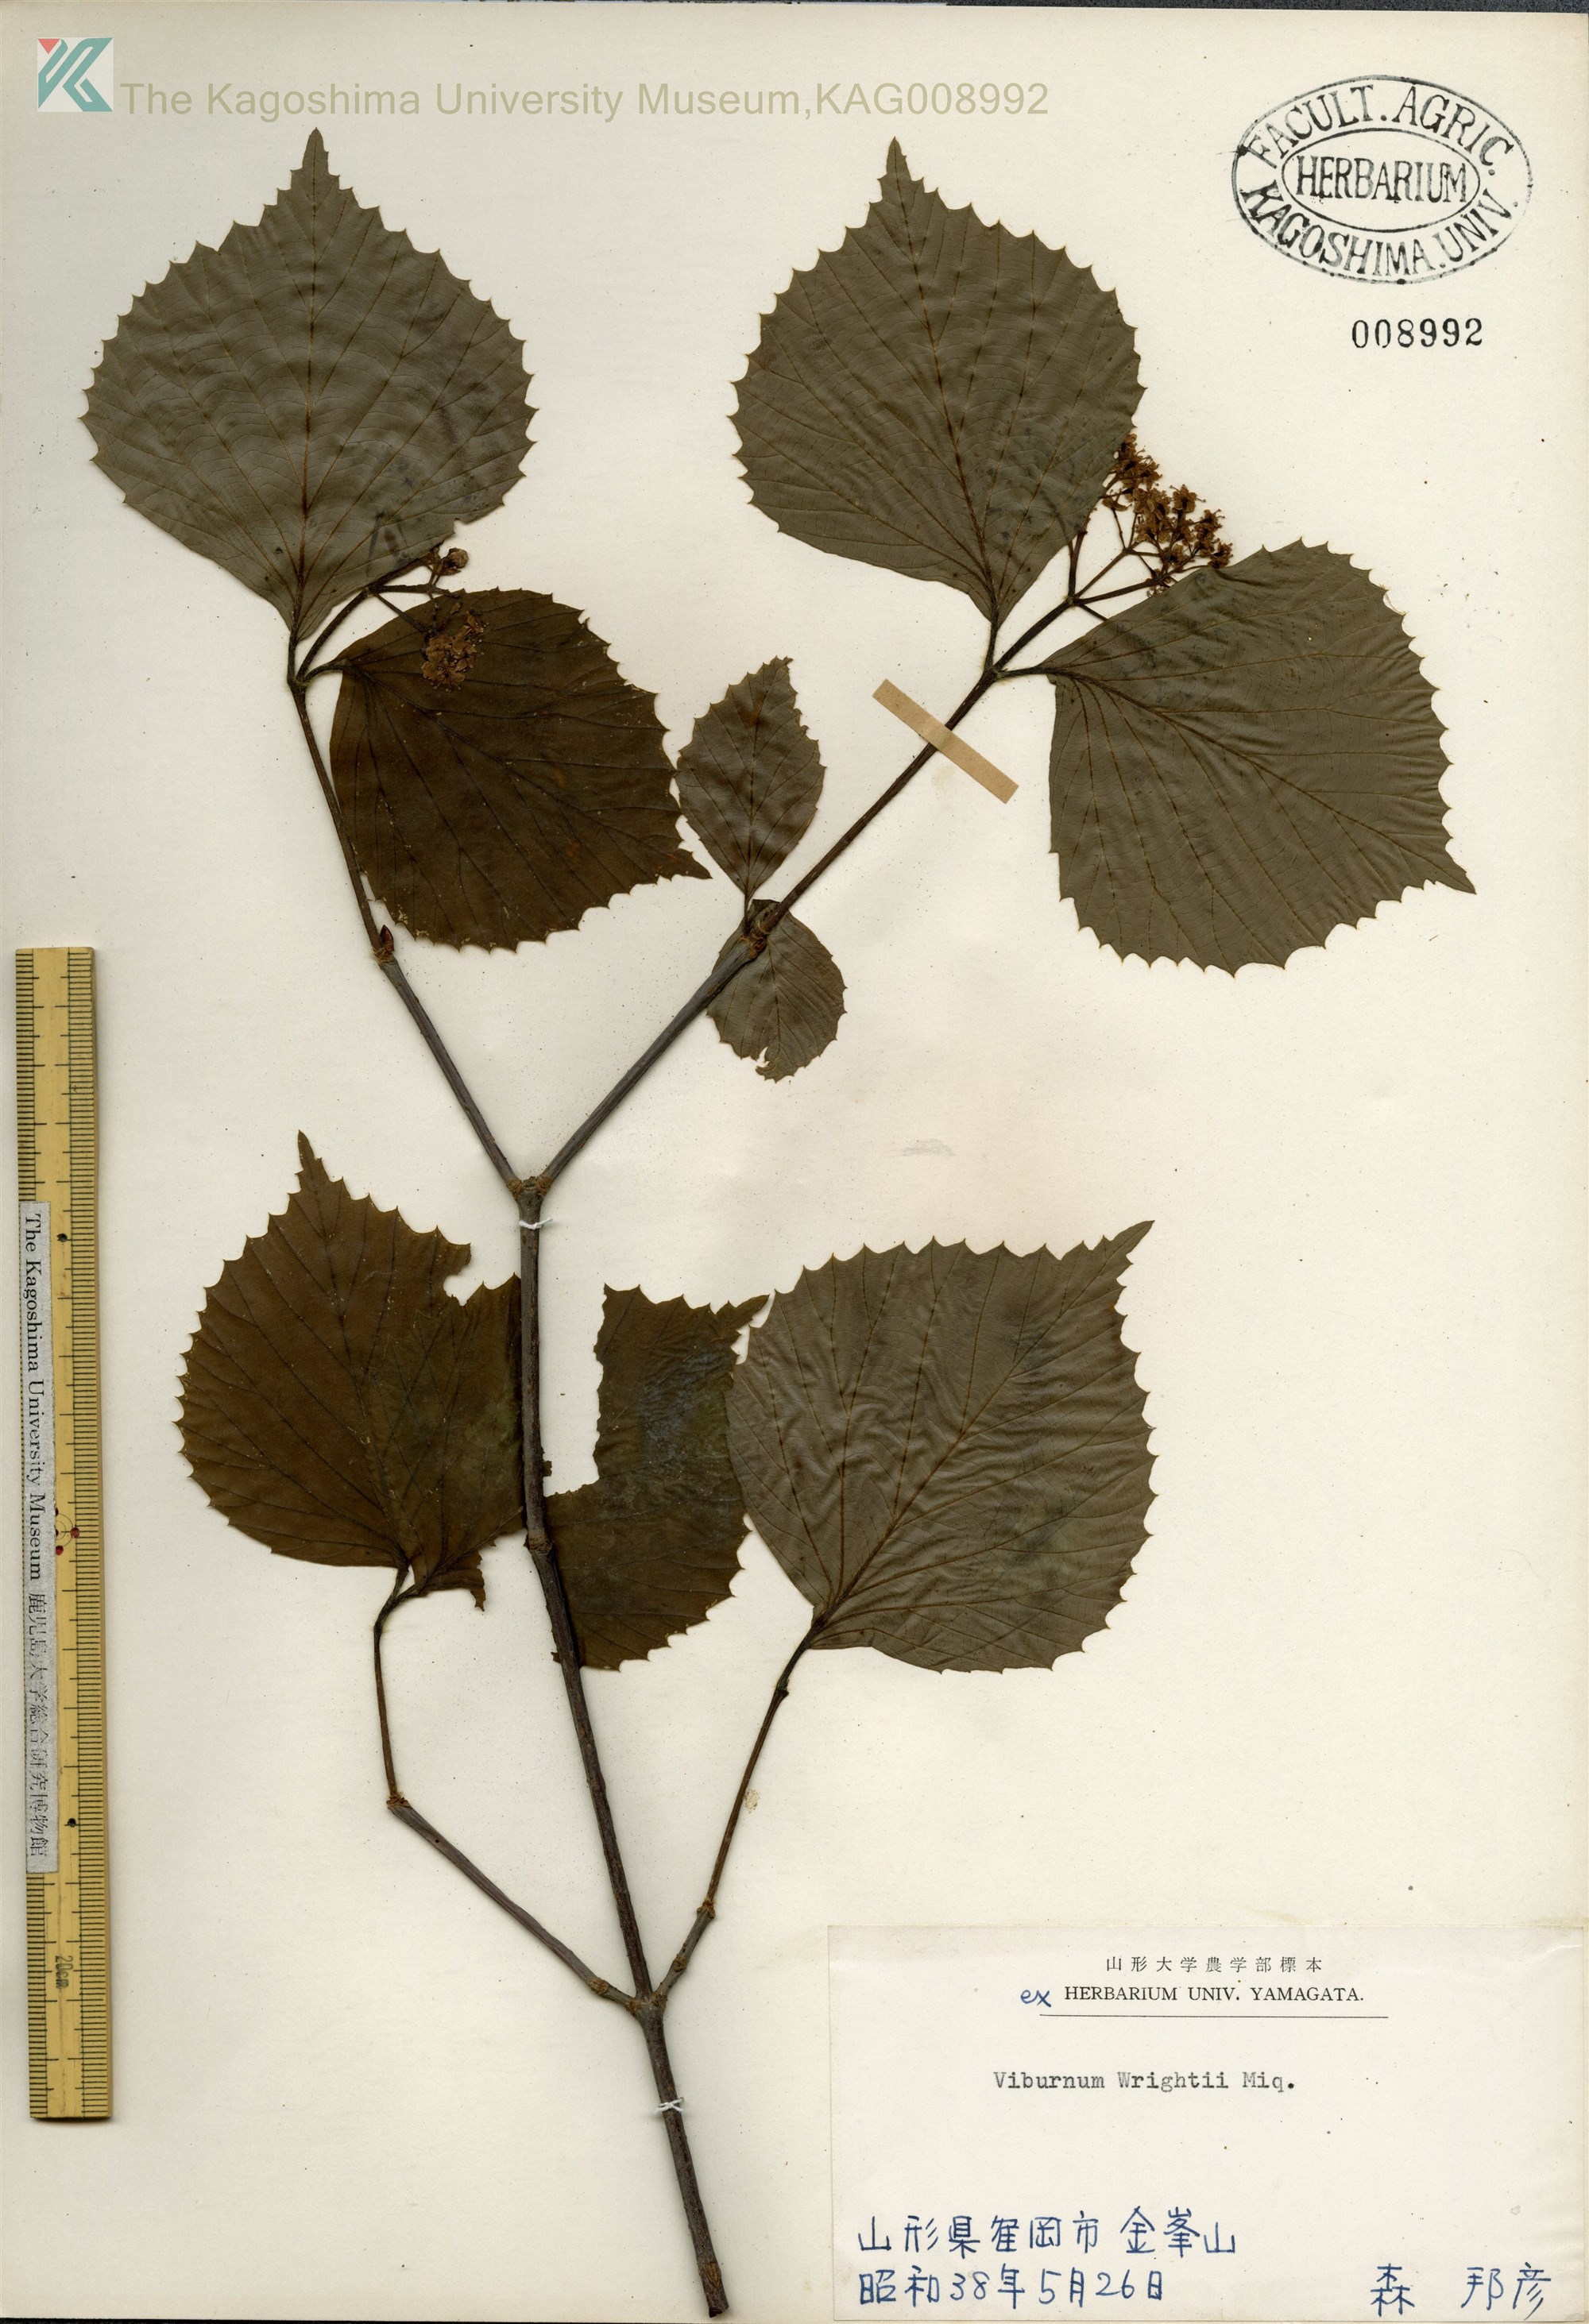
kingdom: Plantae
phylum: Tracheophyta
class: Magnoliopsida
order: Dipsacales
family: Viburnaceae
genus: Viburnum
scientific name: Viburnum wrightii
